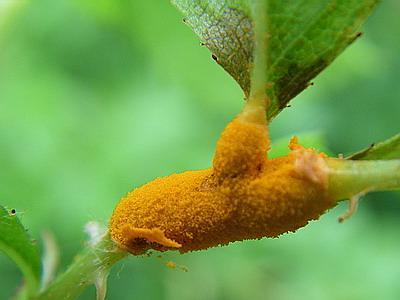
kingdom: Fungi
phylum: Basidiomycota
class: Pucciniomycetes
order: Pucciniales
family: Phragmidiaceae
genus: Phragmidium
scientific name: Phragmidium mucronatum
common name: rose-flercellerust
